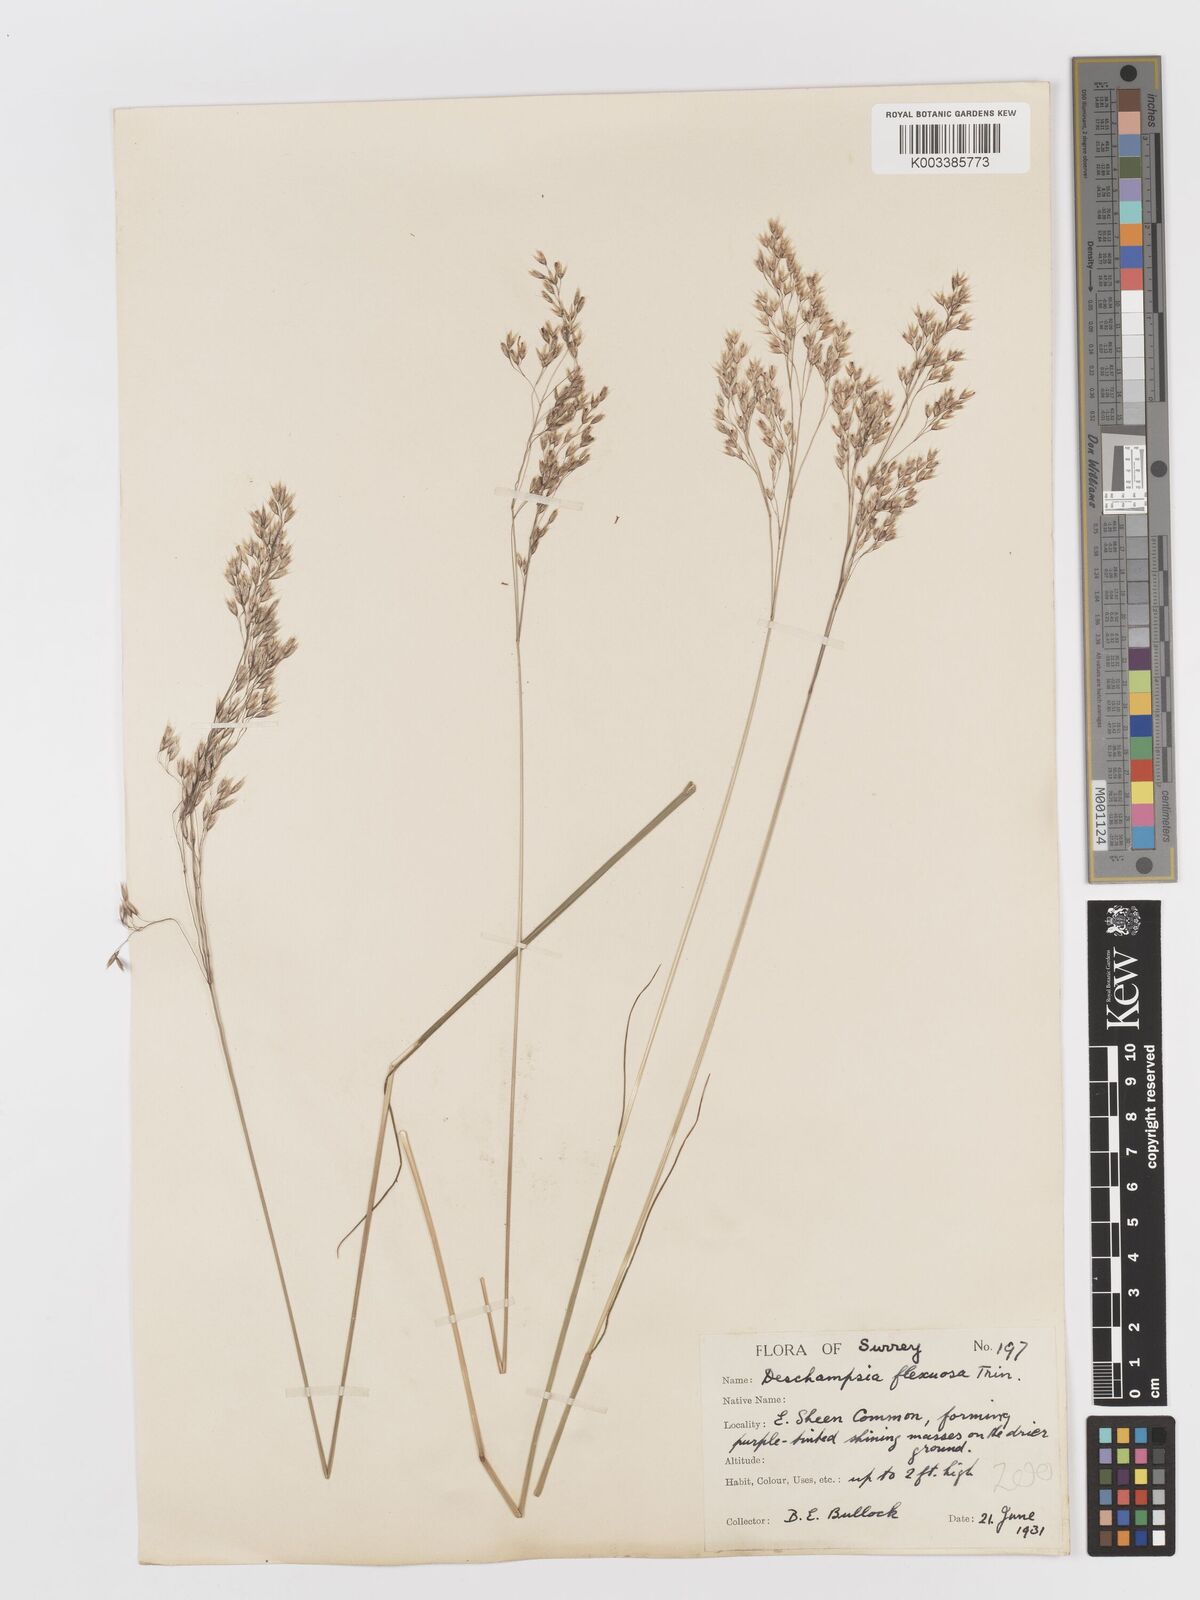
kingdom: Plantae
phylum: Tracheophyta
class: Liliopsida
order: Poales
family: Poaceae
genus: Avenella
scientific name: Avenella flexuosa
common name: Wavy hairgrass
